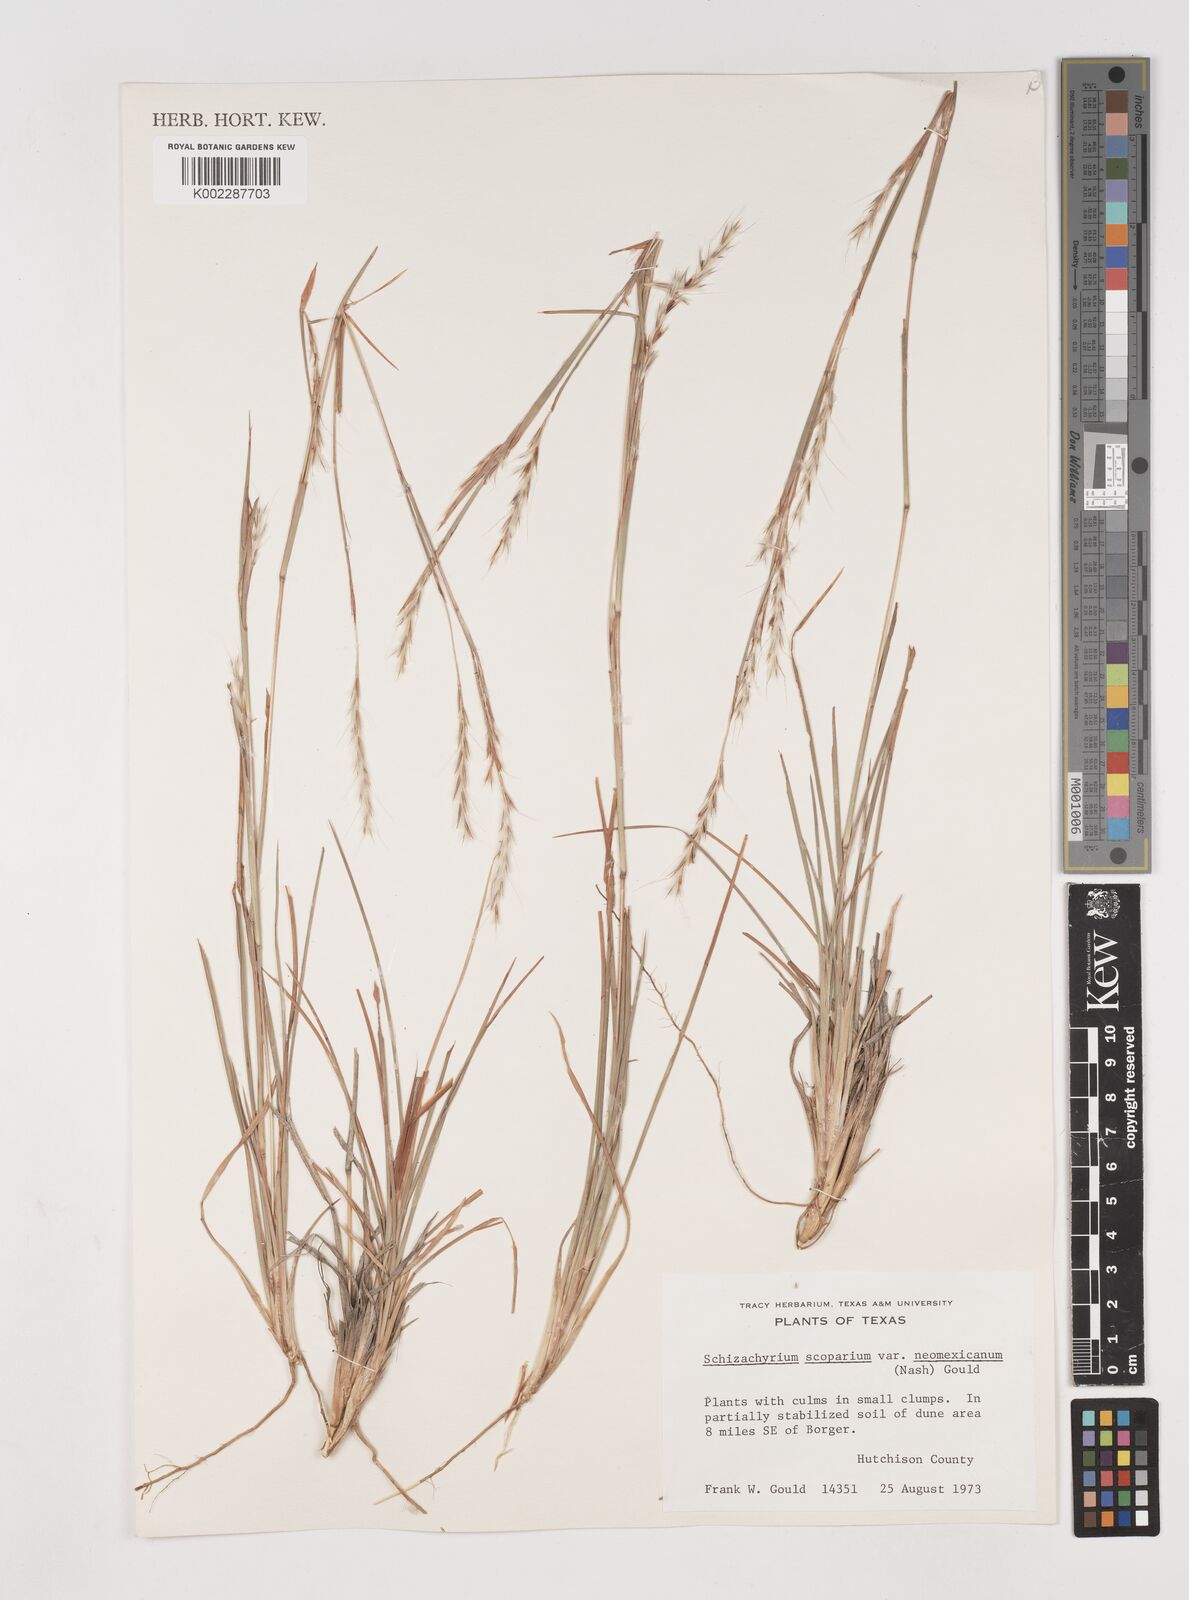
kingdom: Plantae
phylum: Tracheophyta
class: Liliopsida
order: Poales
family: Poaceae
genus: Schizachyrium
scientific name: Schizachyrium scoparium
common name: Little bluestem
